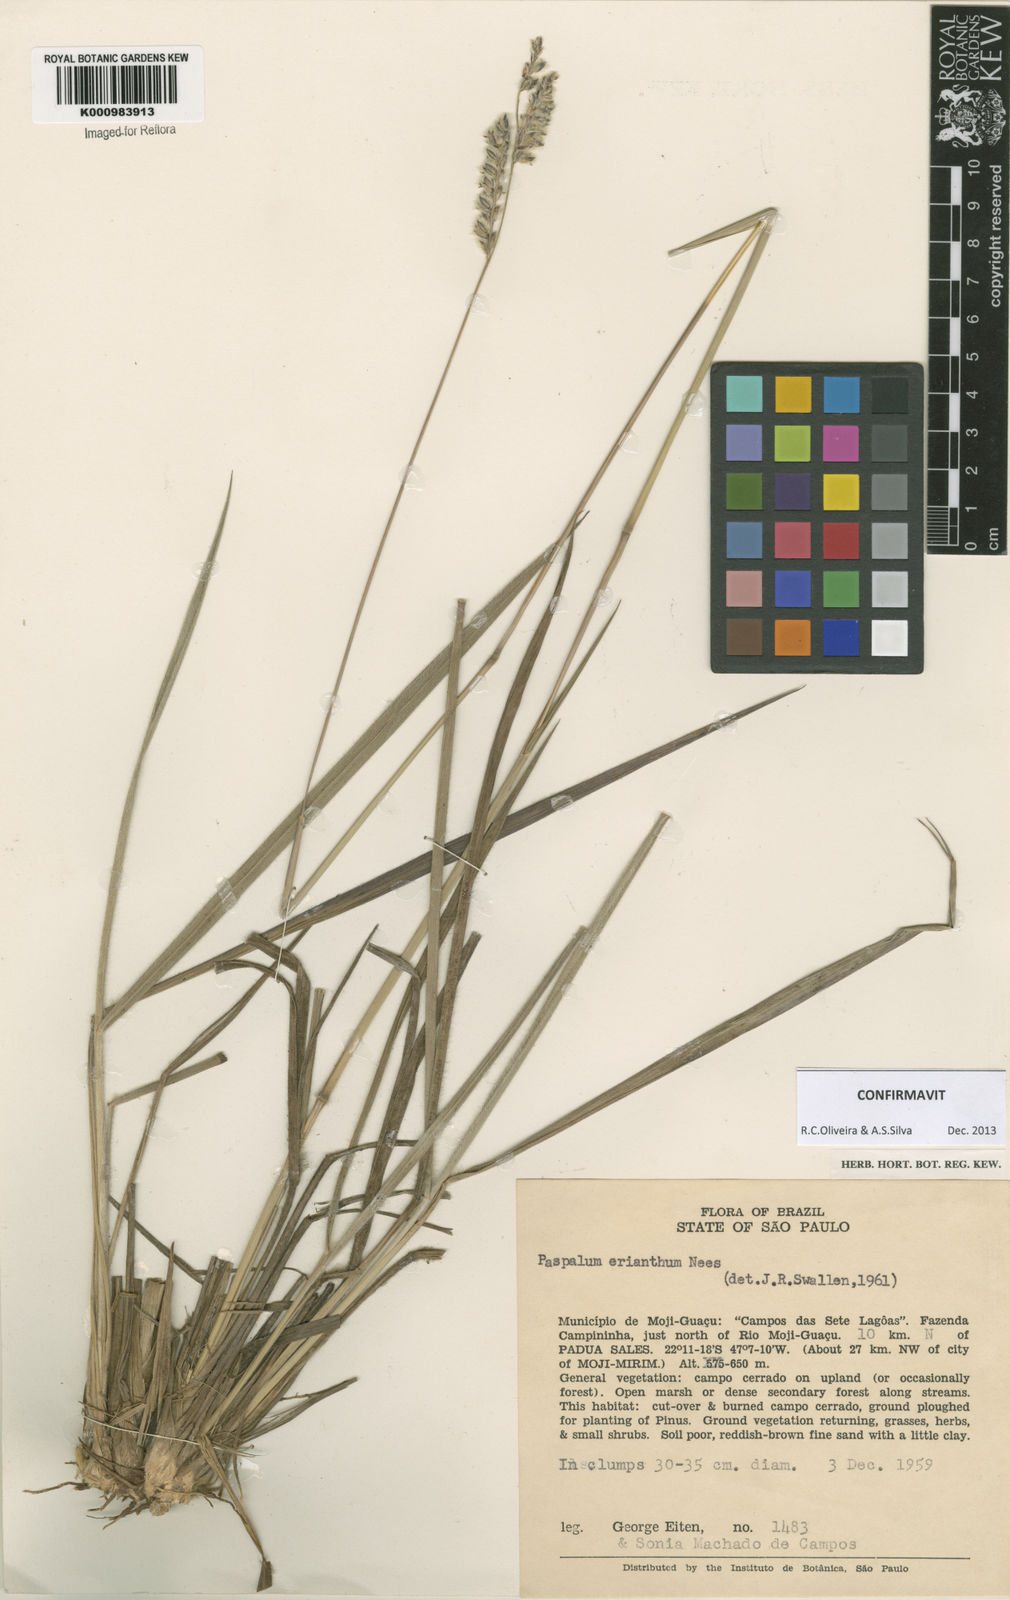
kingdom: Plantae
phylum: Tracheophyta
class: Liliopsida
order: Poales
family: Poaceae
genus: Paspalum
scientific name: Paspalum erianthum
